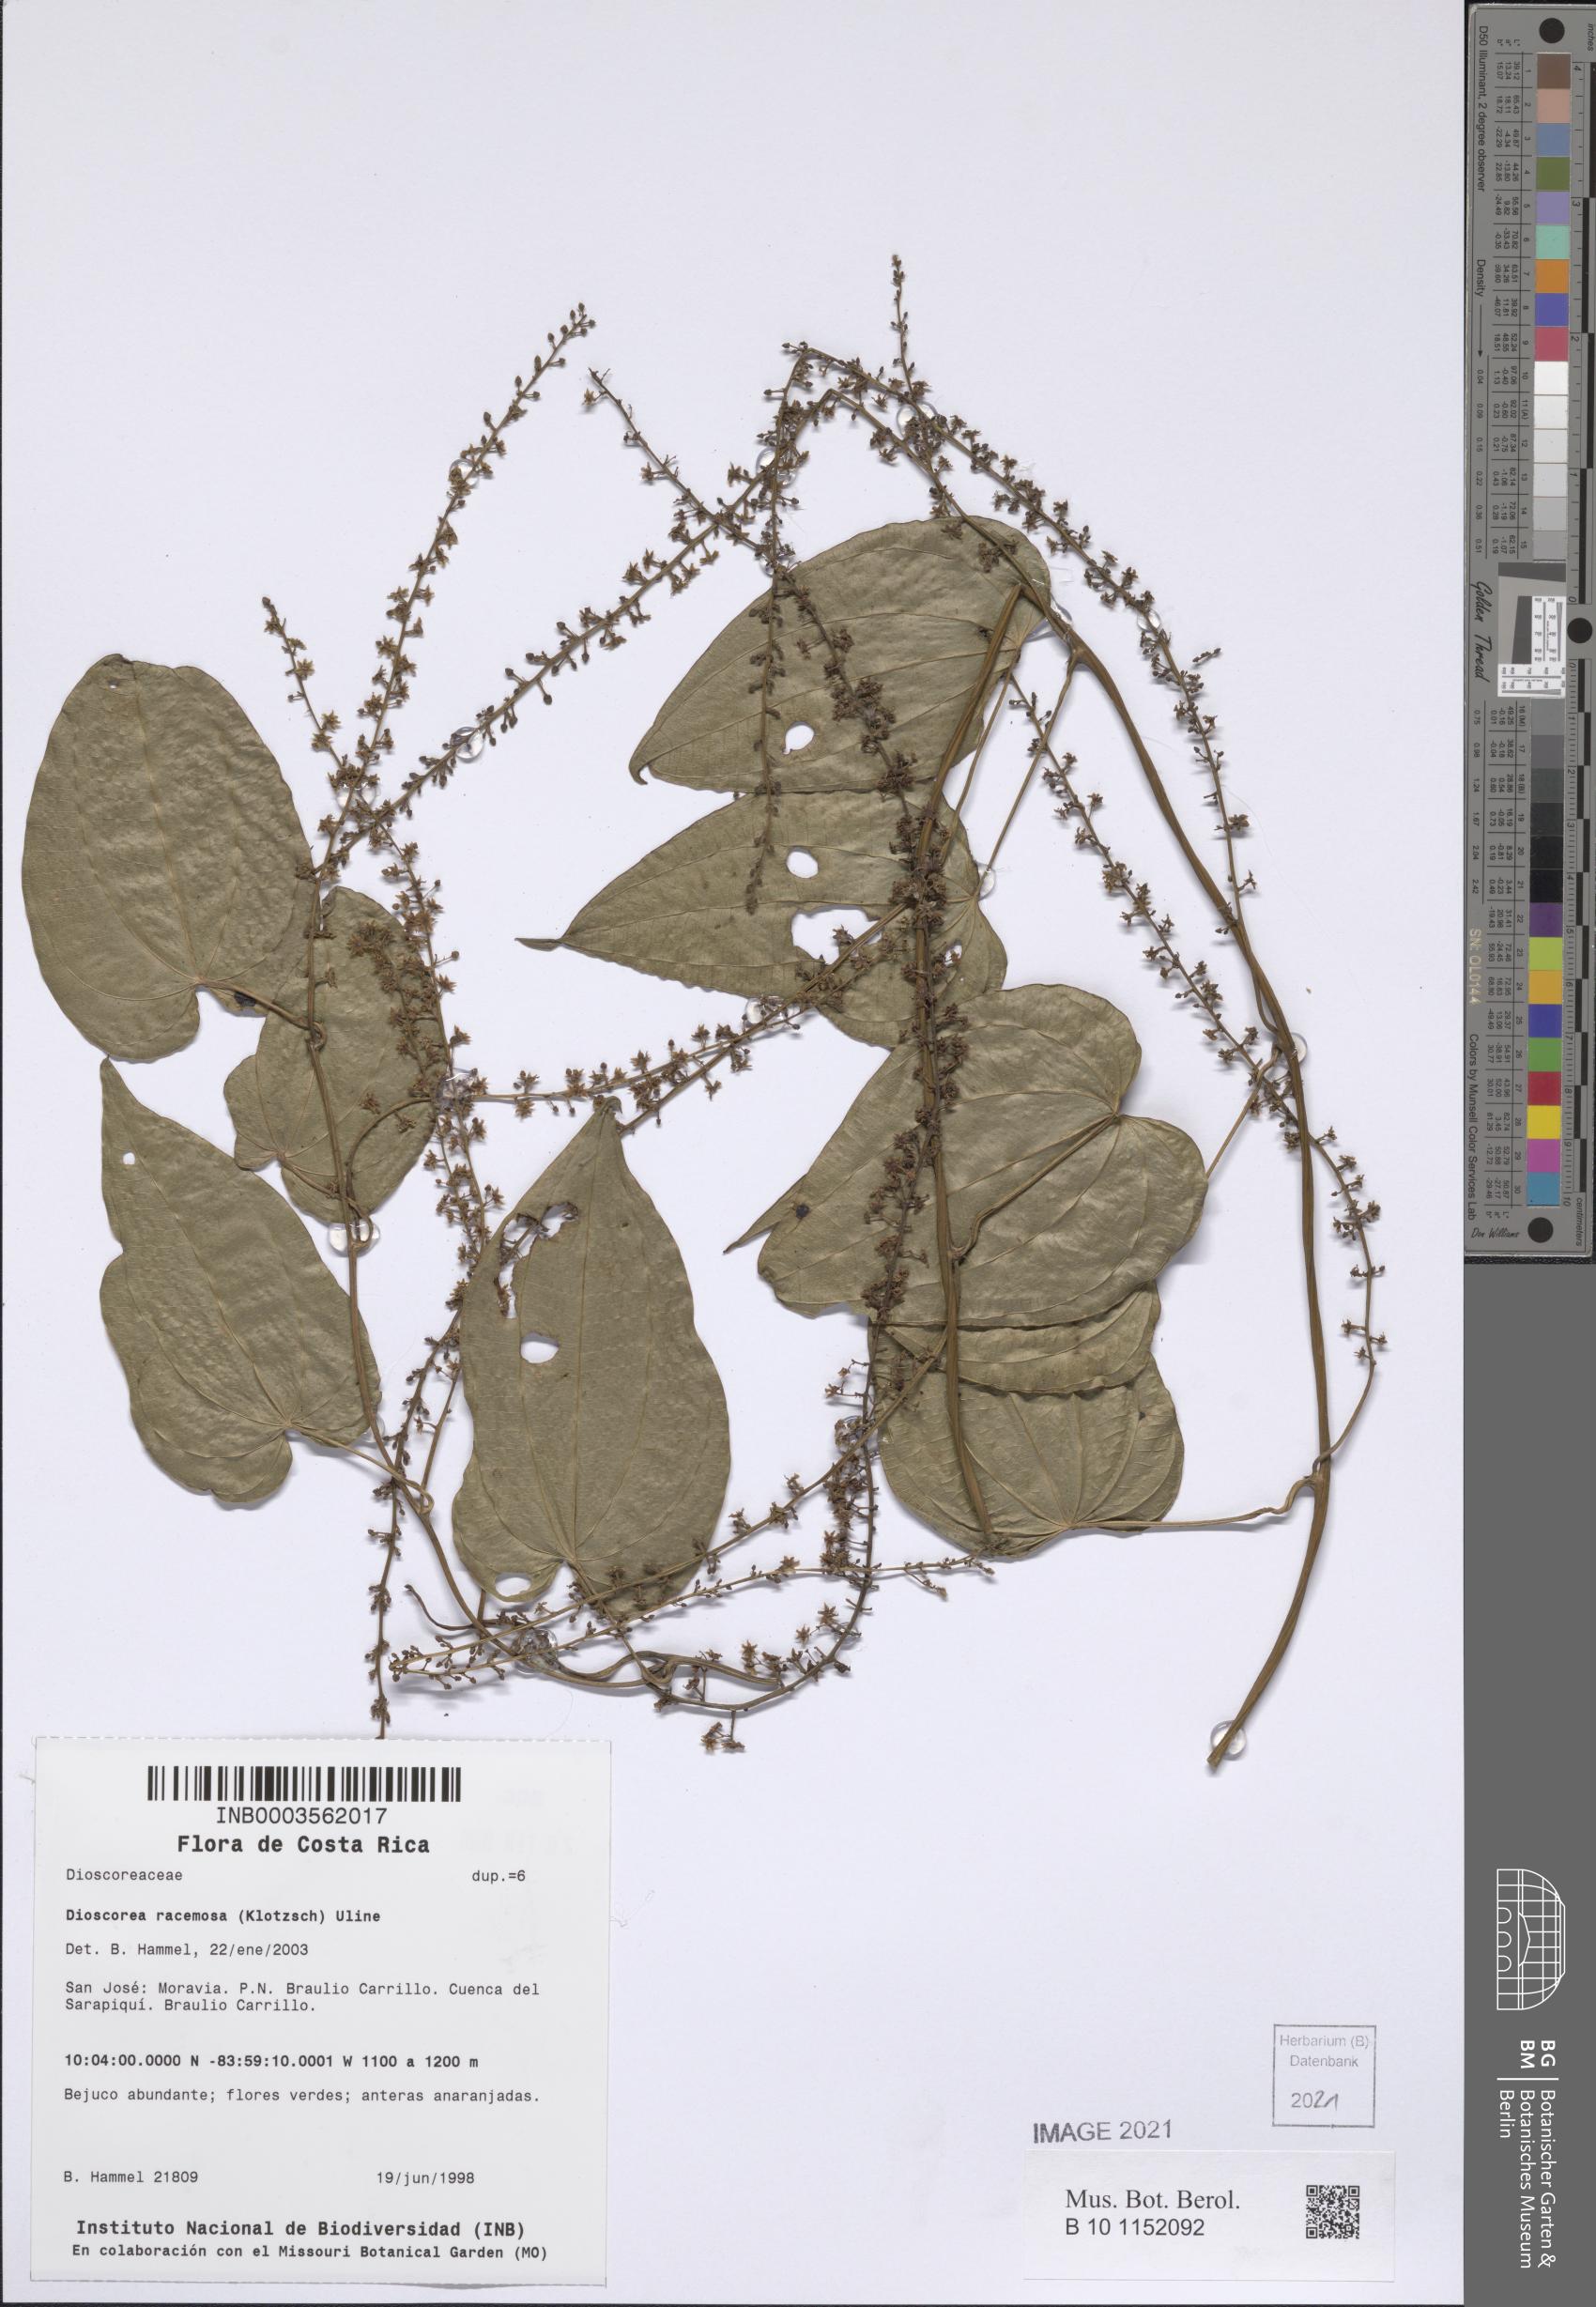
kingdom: Plantae
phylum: Tracheophyta
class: Liliopsida
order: Dioscoreales
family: Dioscoreaceae
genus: Dioscorea
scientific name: Dioscorea dodecaneura
